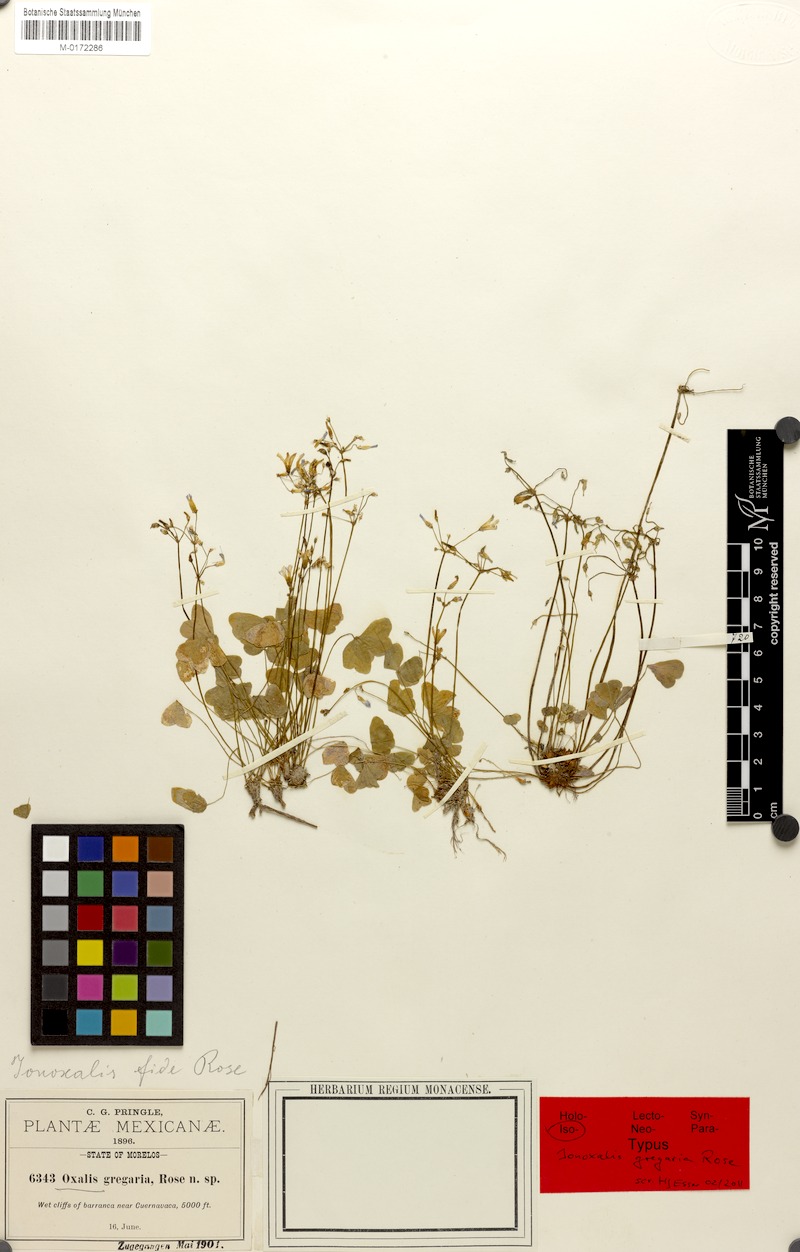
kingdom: Plantae
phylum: Tracheophyta
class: Magnoliopsida
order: Oxalidales
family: Oxalidaceae
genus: Oxalis
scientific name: Oxalis dimidiata
